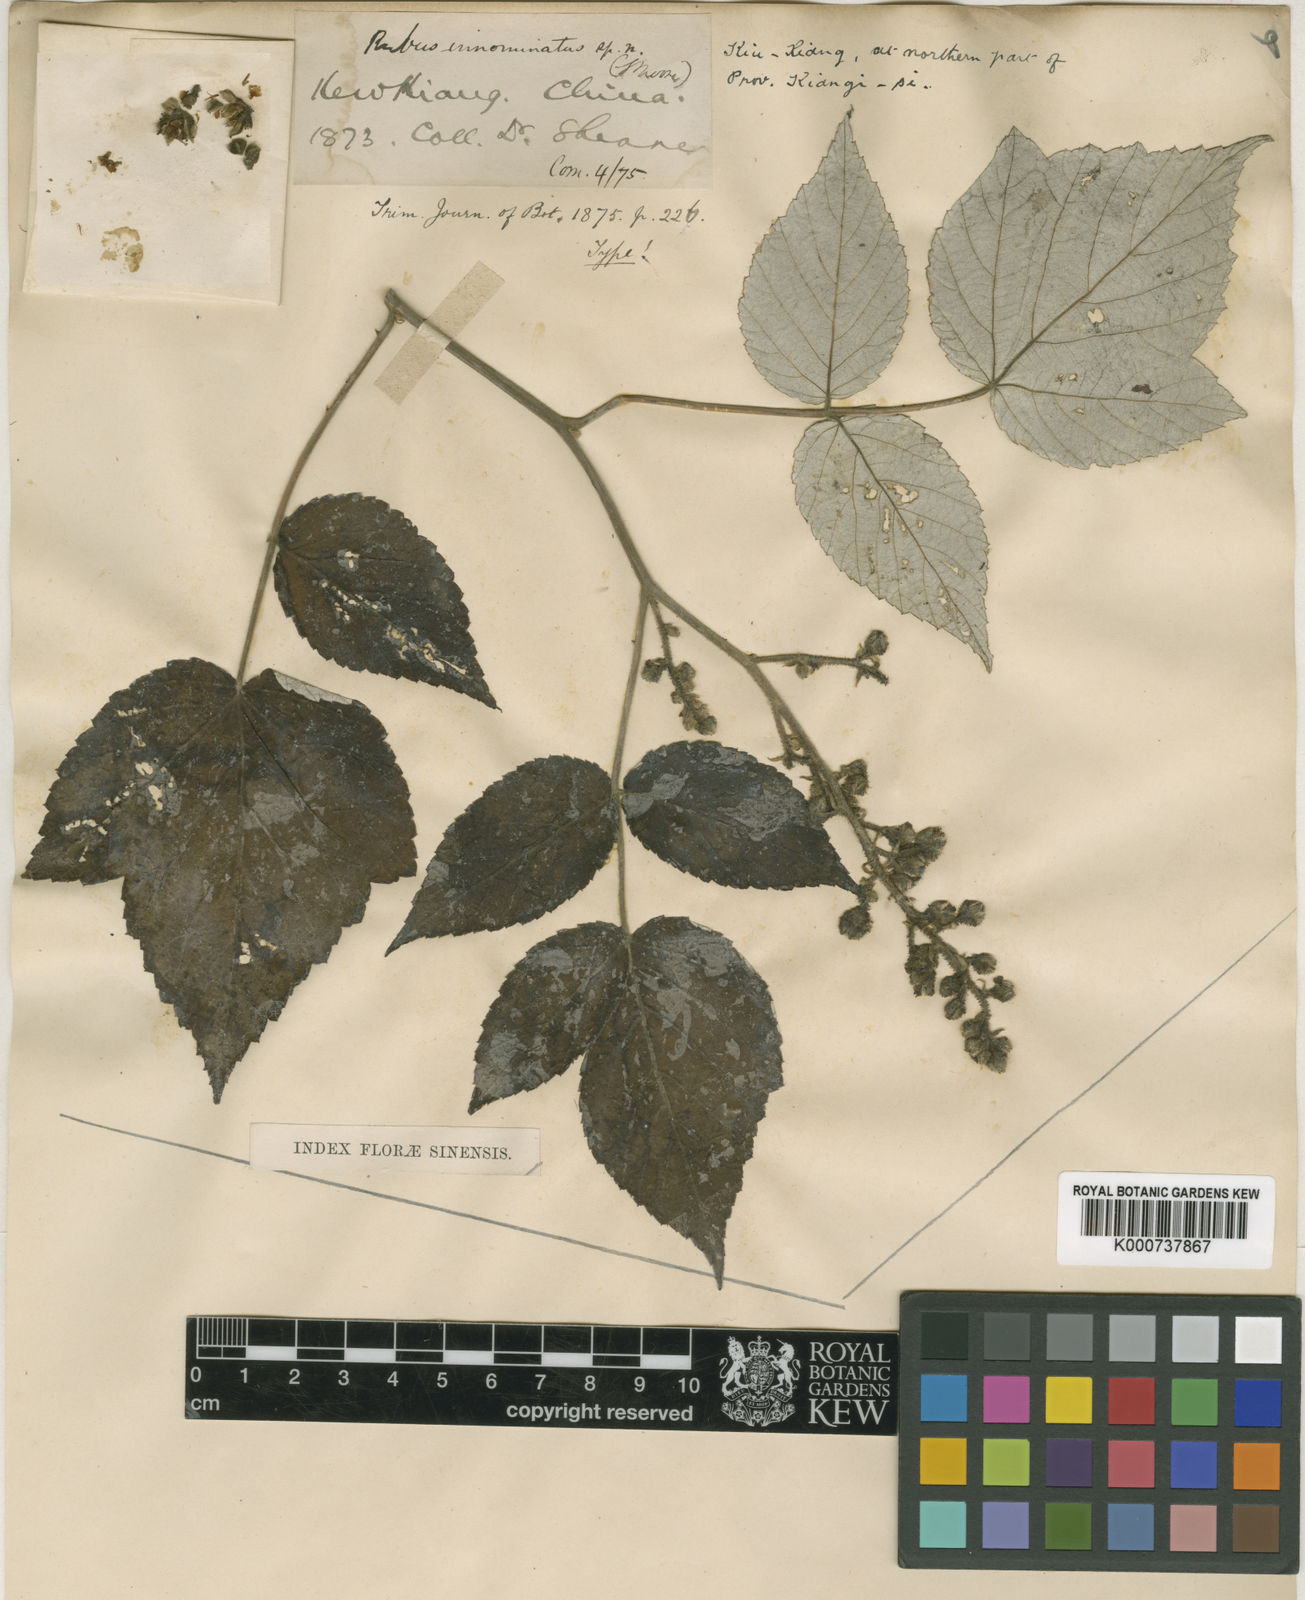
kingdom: Plantae
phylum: Tracheophyta
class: Magnoliopsida
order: Rosales
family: Rosaceae
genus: Rubus
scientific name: Rubus innominatus
